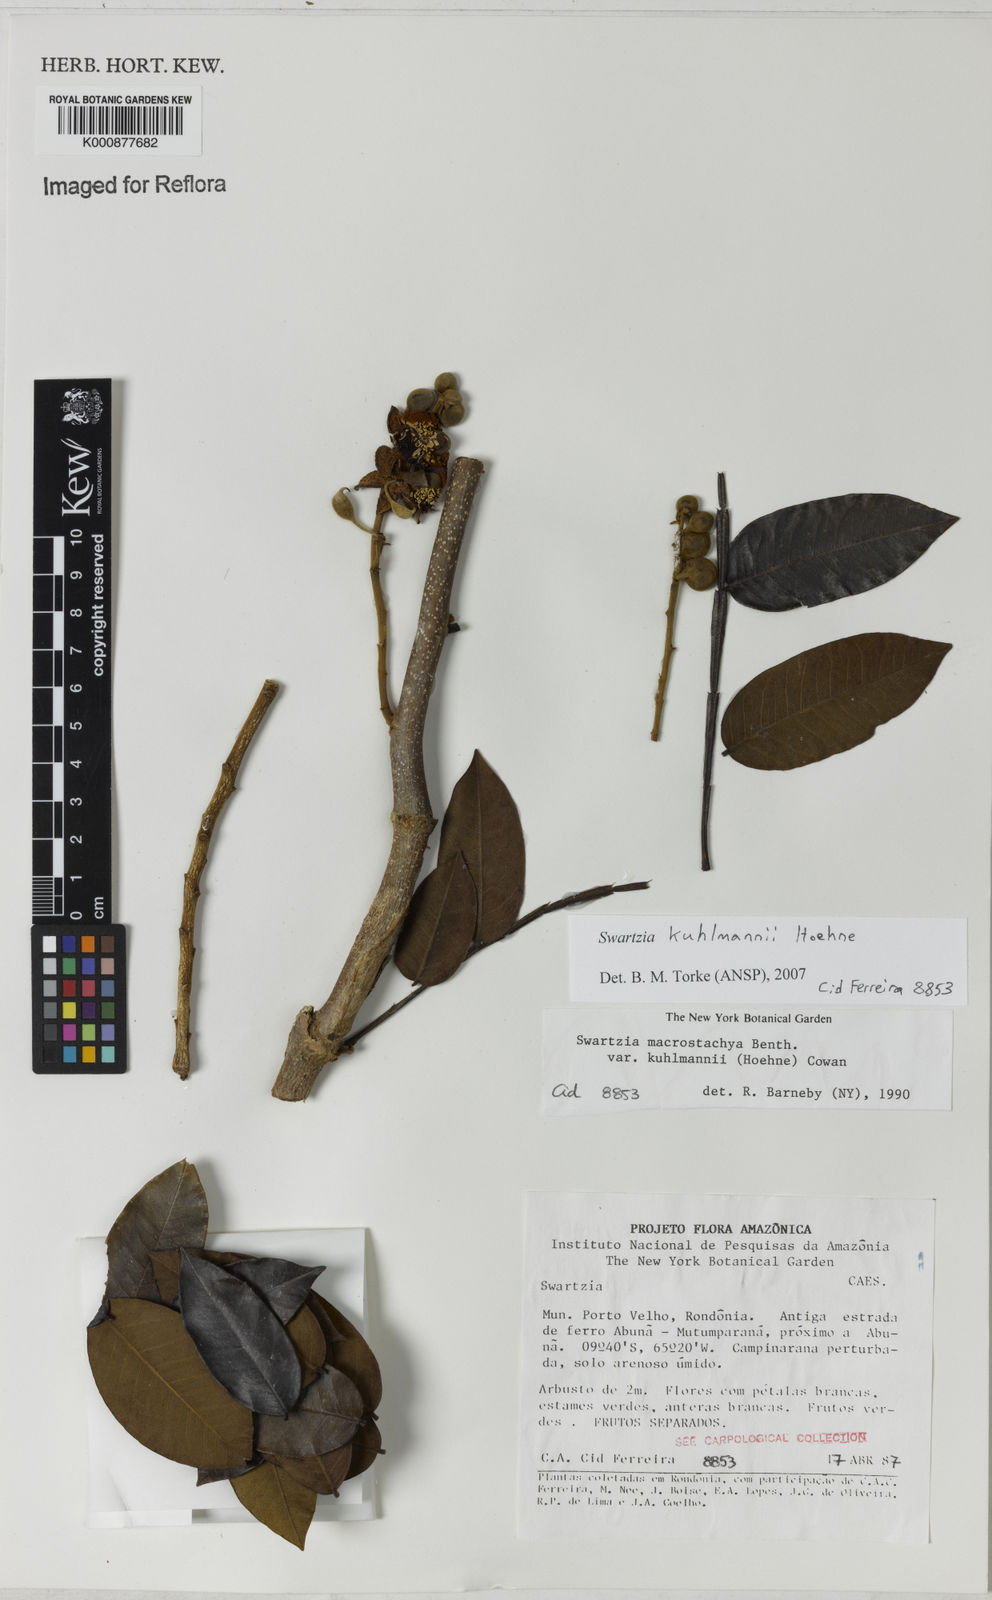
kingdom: Plantae
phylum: Tracheophyta
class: Magnoliopsida
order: Fabales
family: Fabaceae
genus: Swartzia
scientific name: Swartzia kuhlmannii
